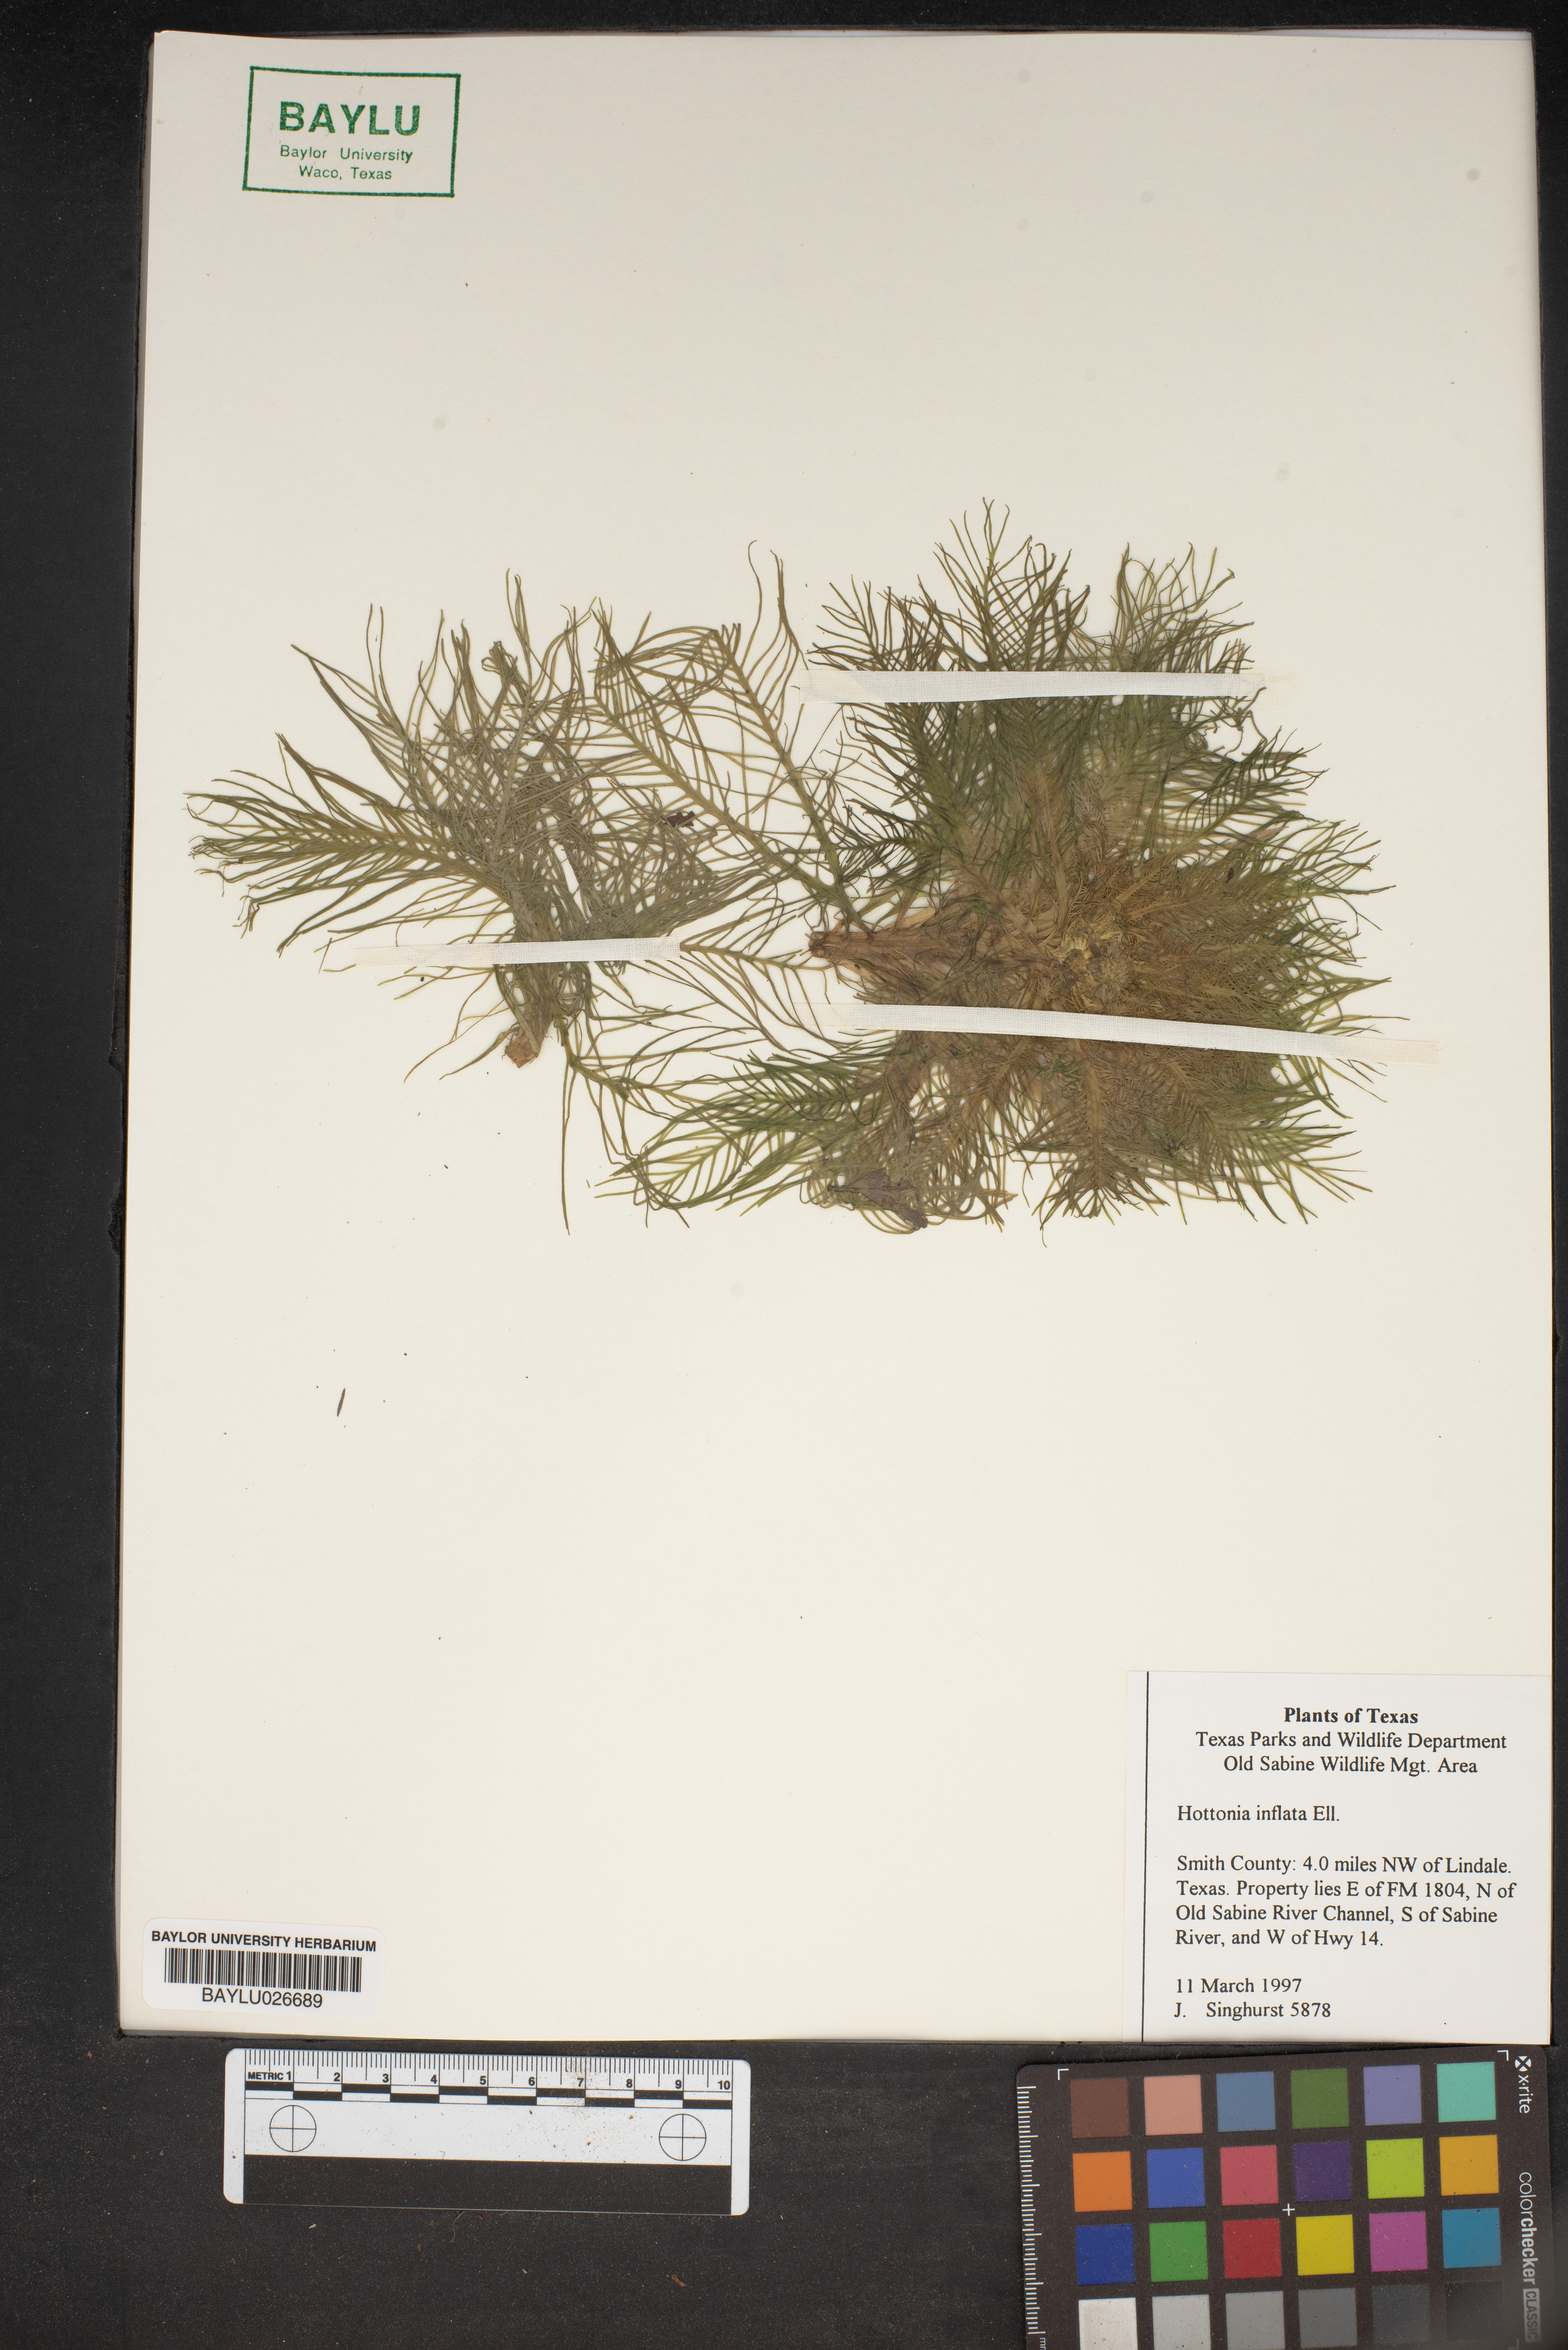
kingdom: Plantae
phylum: Tracheophyta
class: Magnoliopsida
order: Ericales
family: Primulaceae
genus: Hottonia
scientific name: Hottonia inflata
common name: American featherfoil
